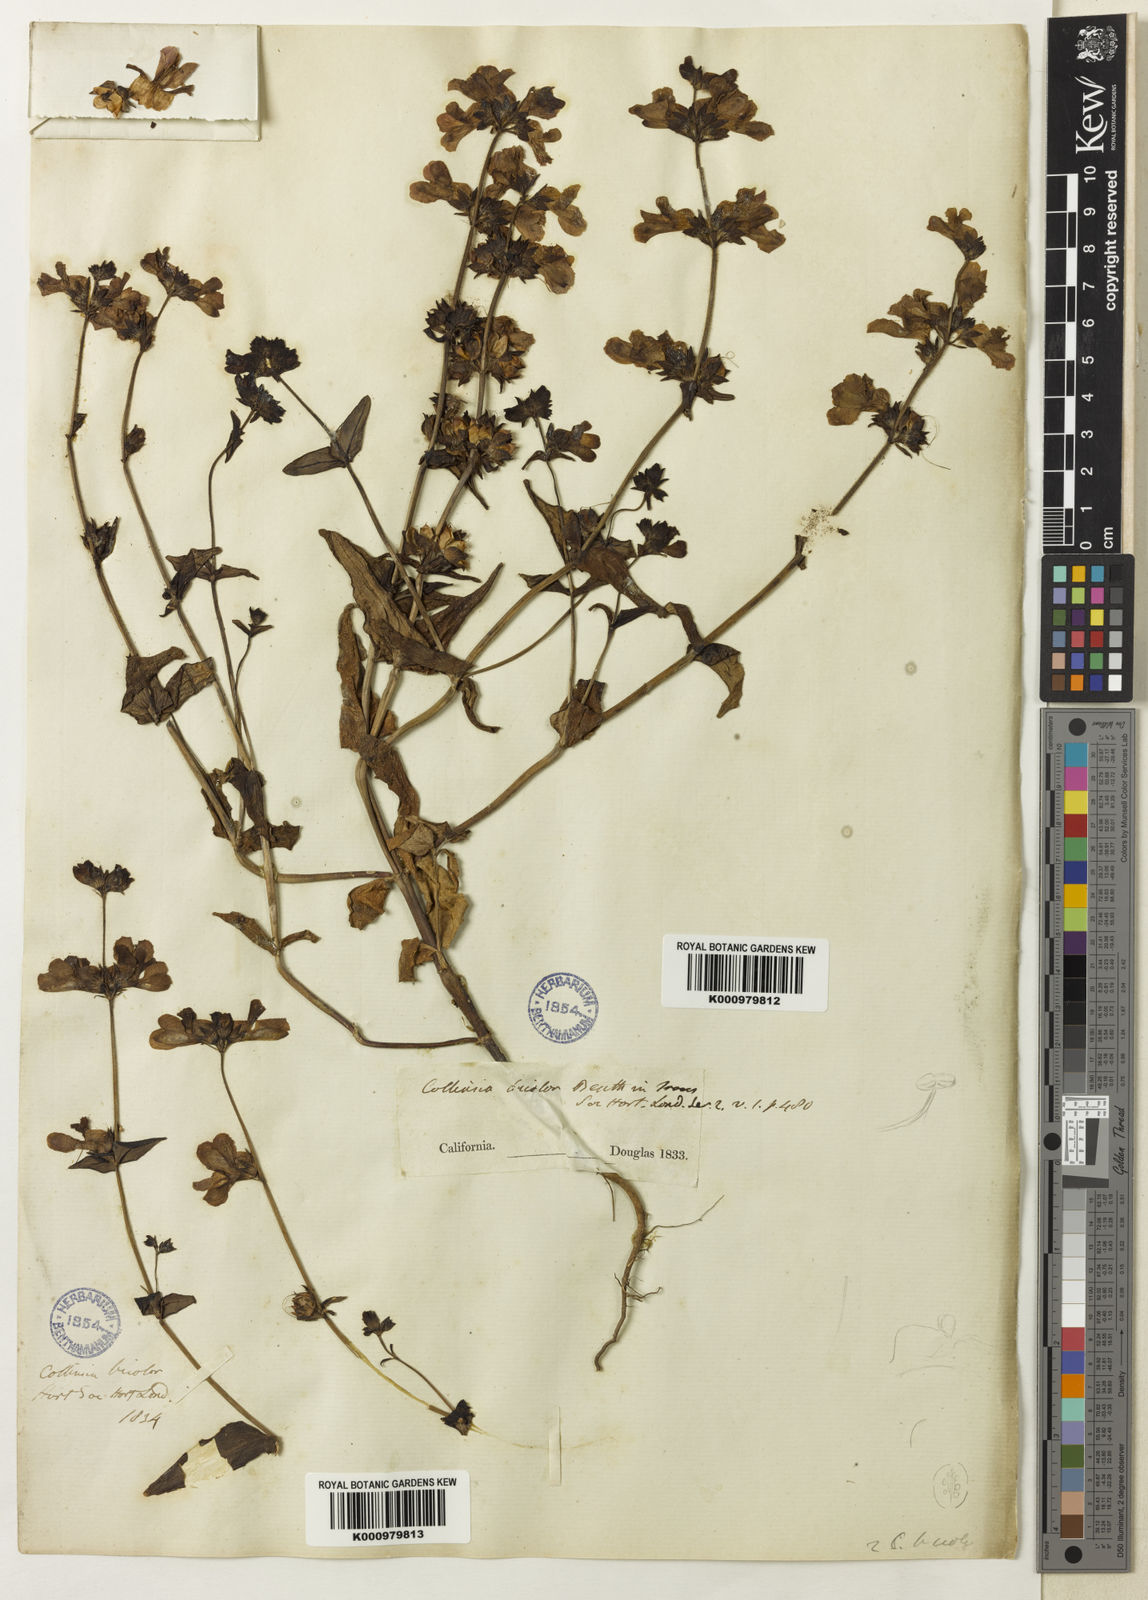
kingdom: Plantae
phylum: Tracheophyta
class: Magnoliopsida
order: Lamiales
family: Plantaginaceae
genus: Collinsia
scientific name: Collinsia heterophylla
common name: Chinese-houses
